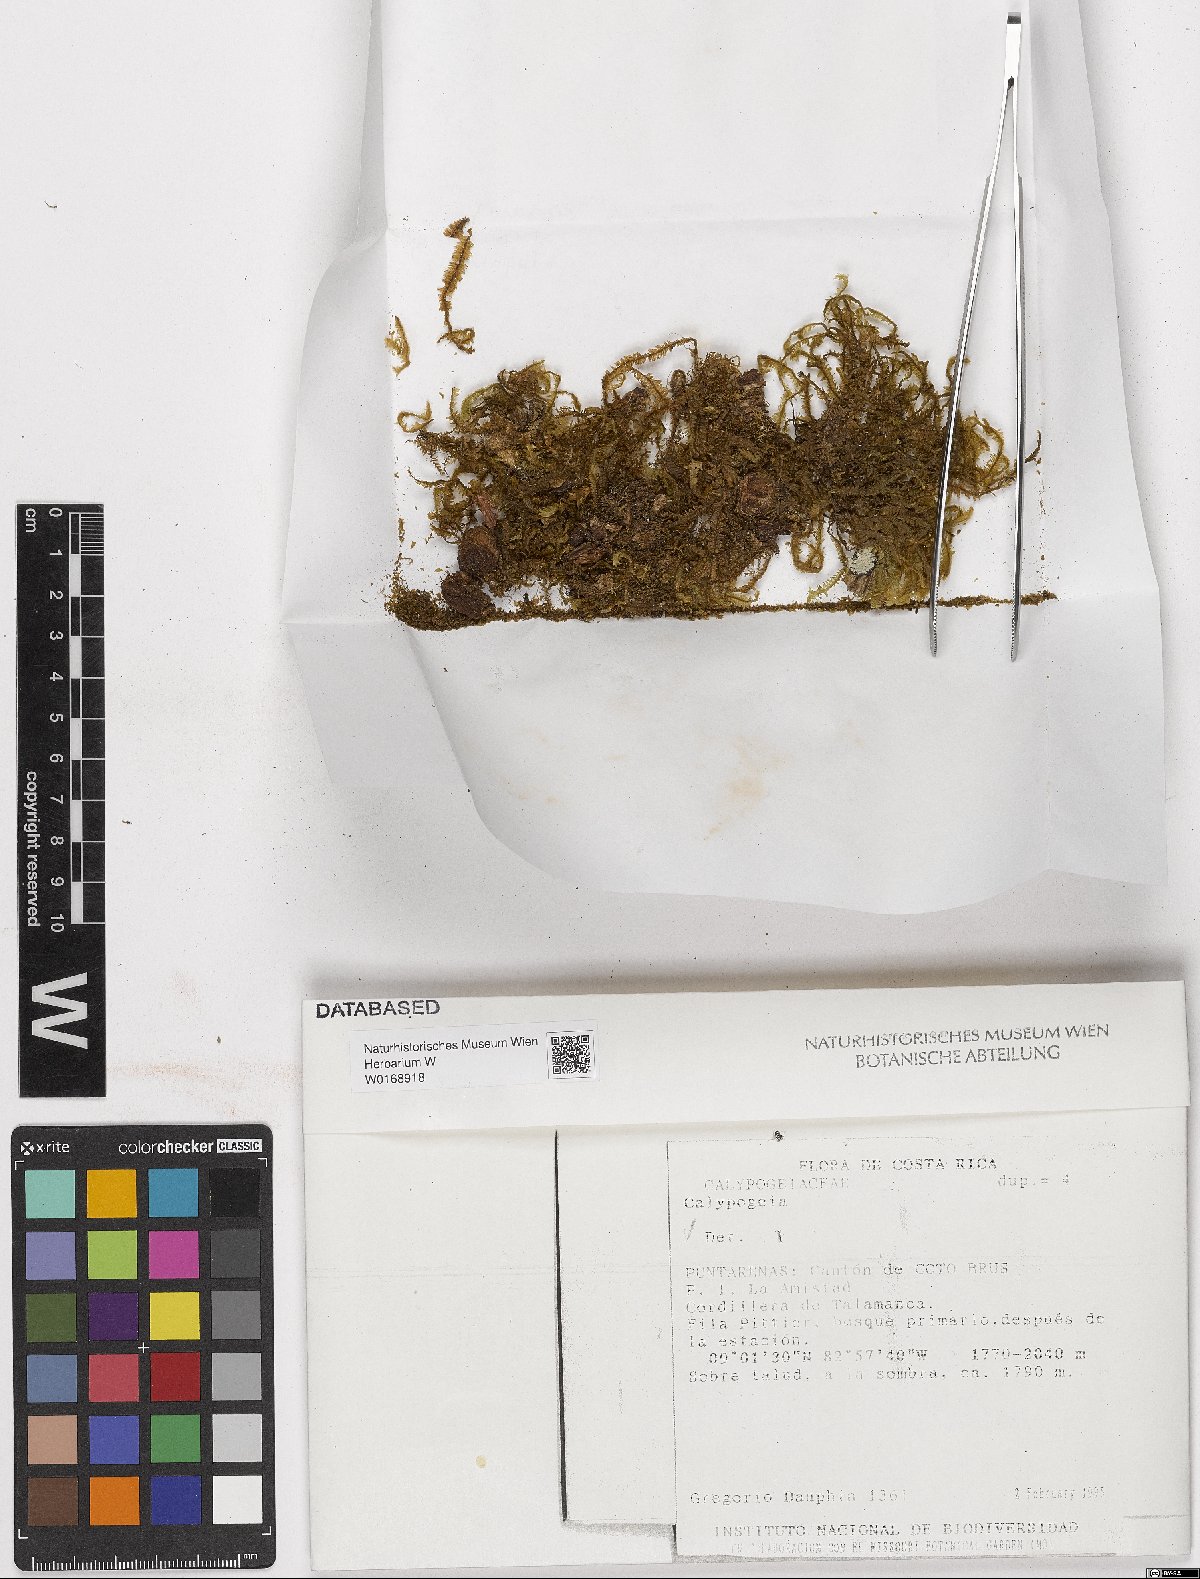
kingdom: Plantae
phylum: Marchantiophyta
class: Jungermanniopsida
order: Jungermanniales
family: Calypogeiaceae
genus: Calypogeia
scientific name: Calypogeia
